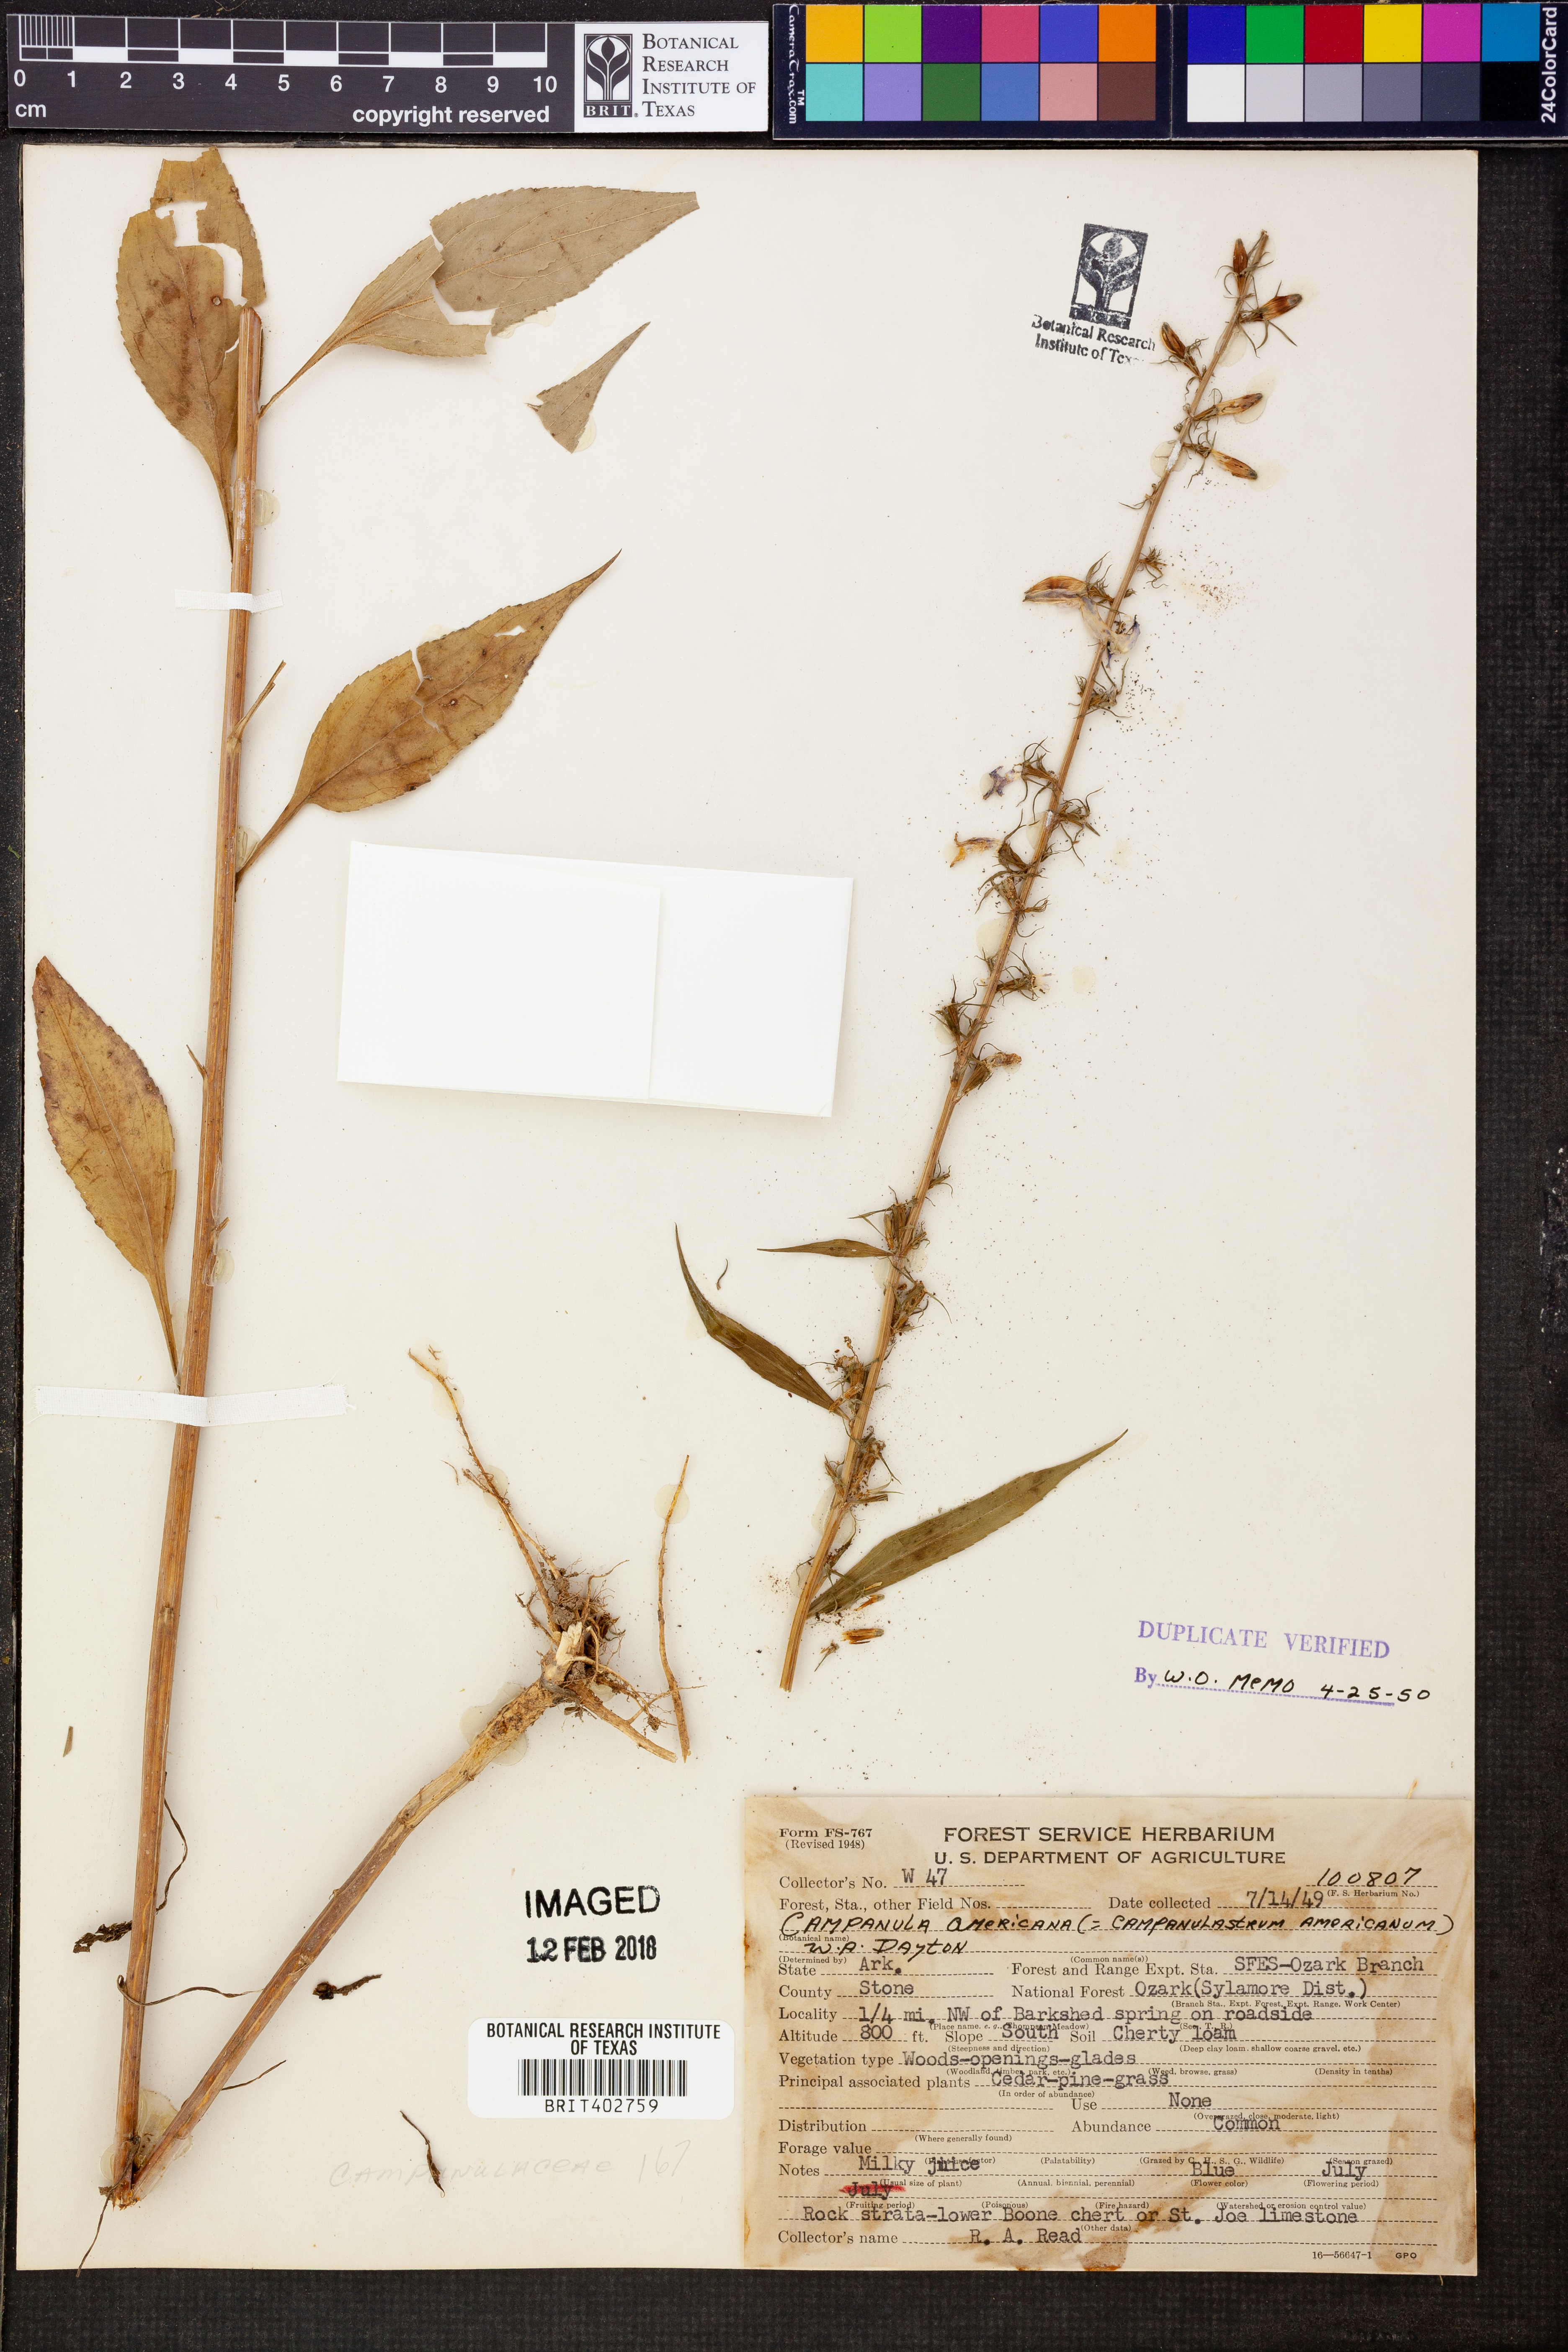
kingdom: Plantae
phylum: Tracheophyta
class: Magnoliopsida
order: Asterales
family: Campanulaceae
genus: Campanula
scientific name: Campanula americana
